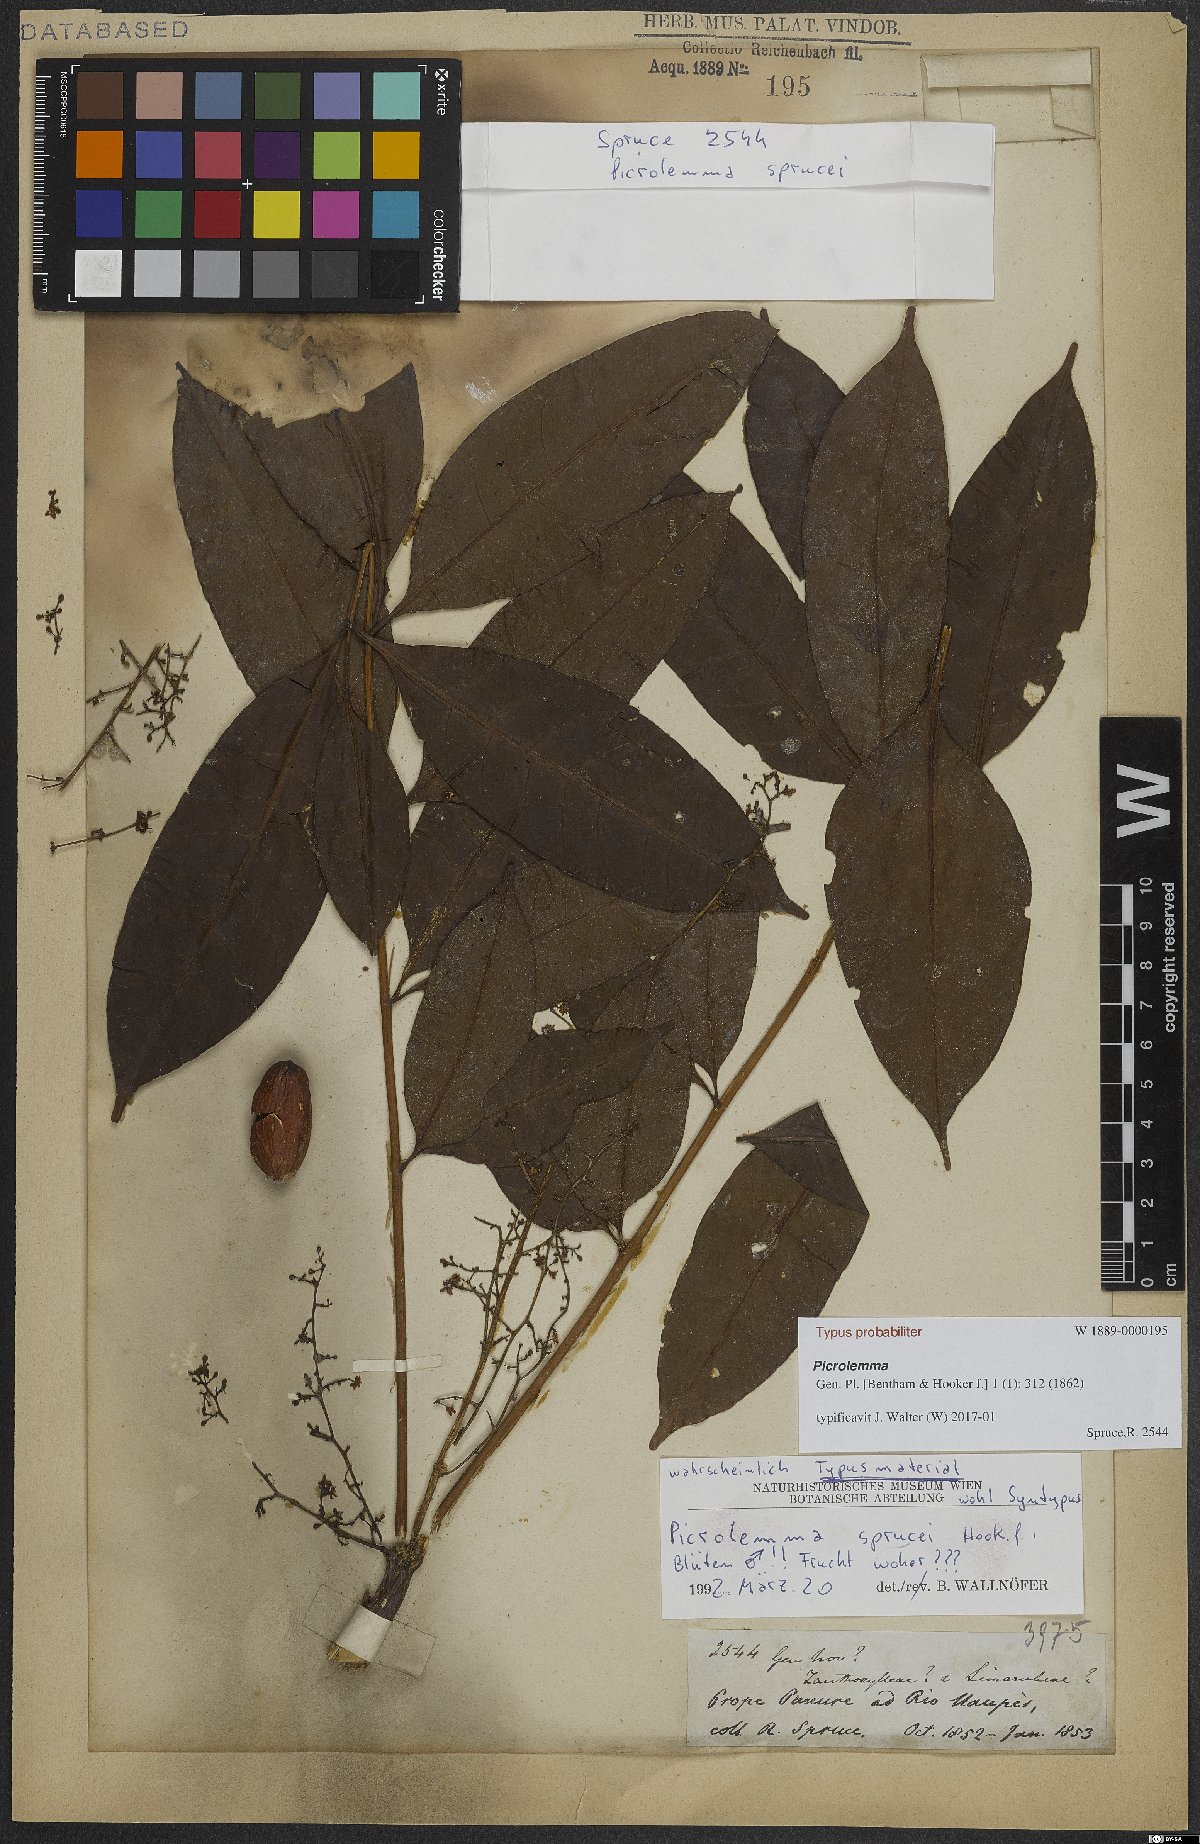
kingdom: Plantae
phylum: Tracheophyta
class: Magnoliopsida
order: Sapindales
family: Simaroubaceae
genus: Picrolemma
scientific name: Picrolemma sprucei
